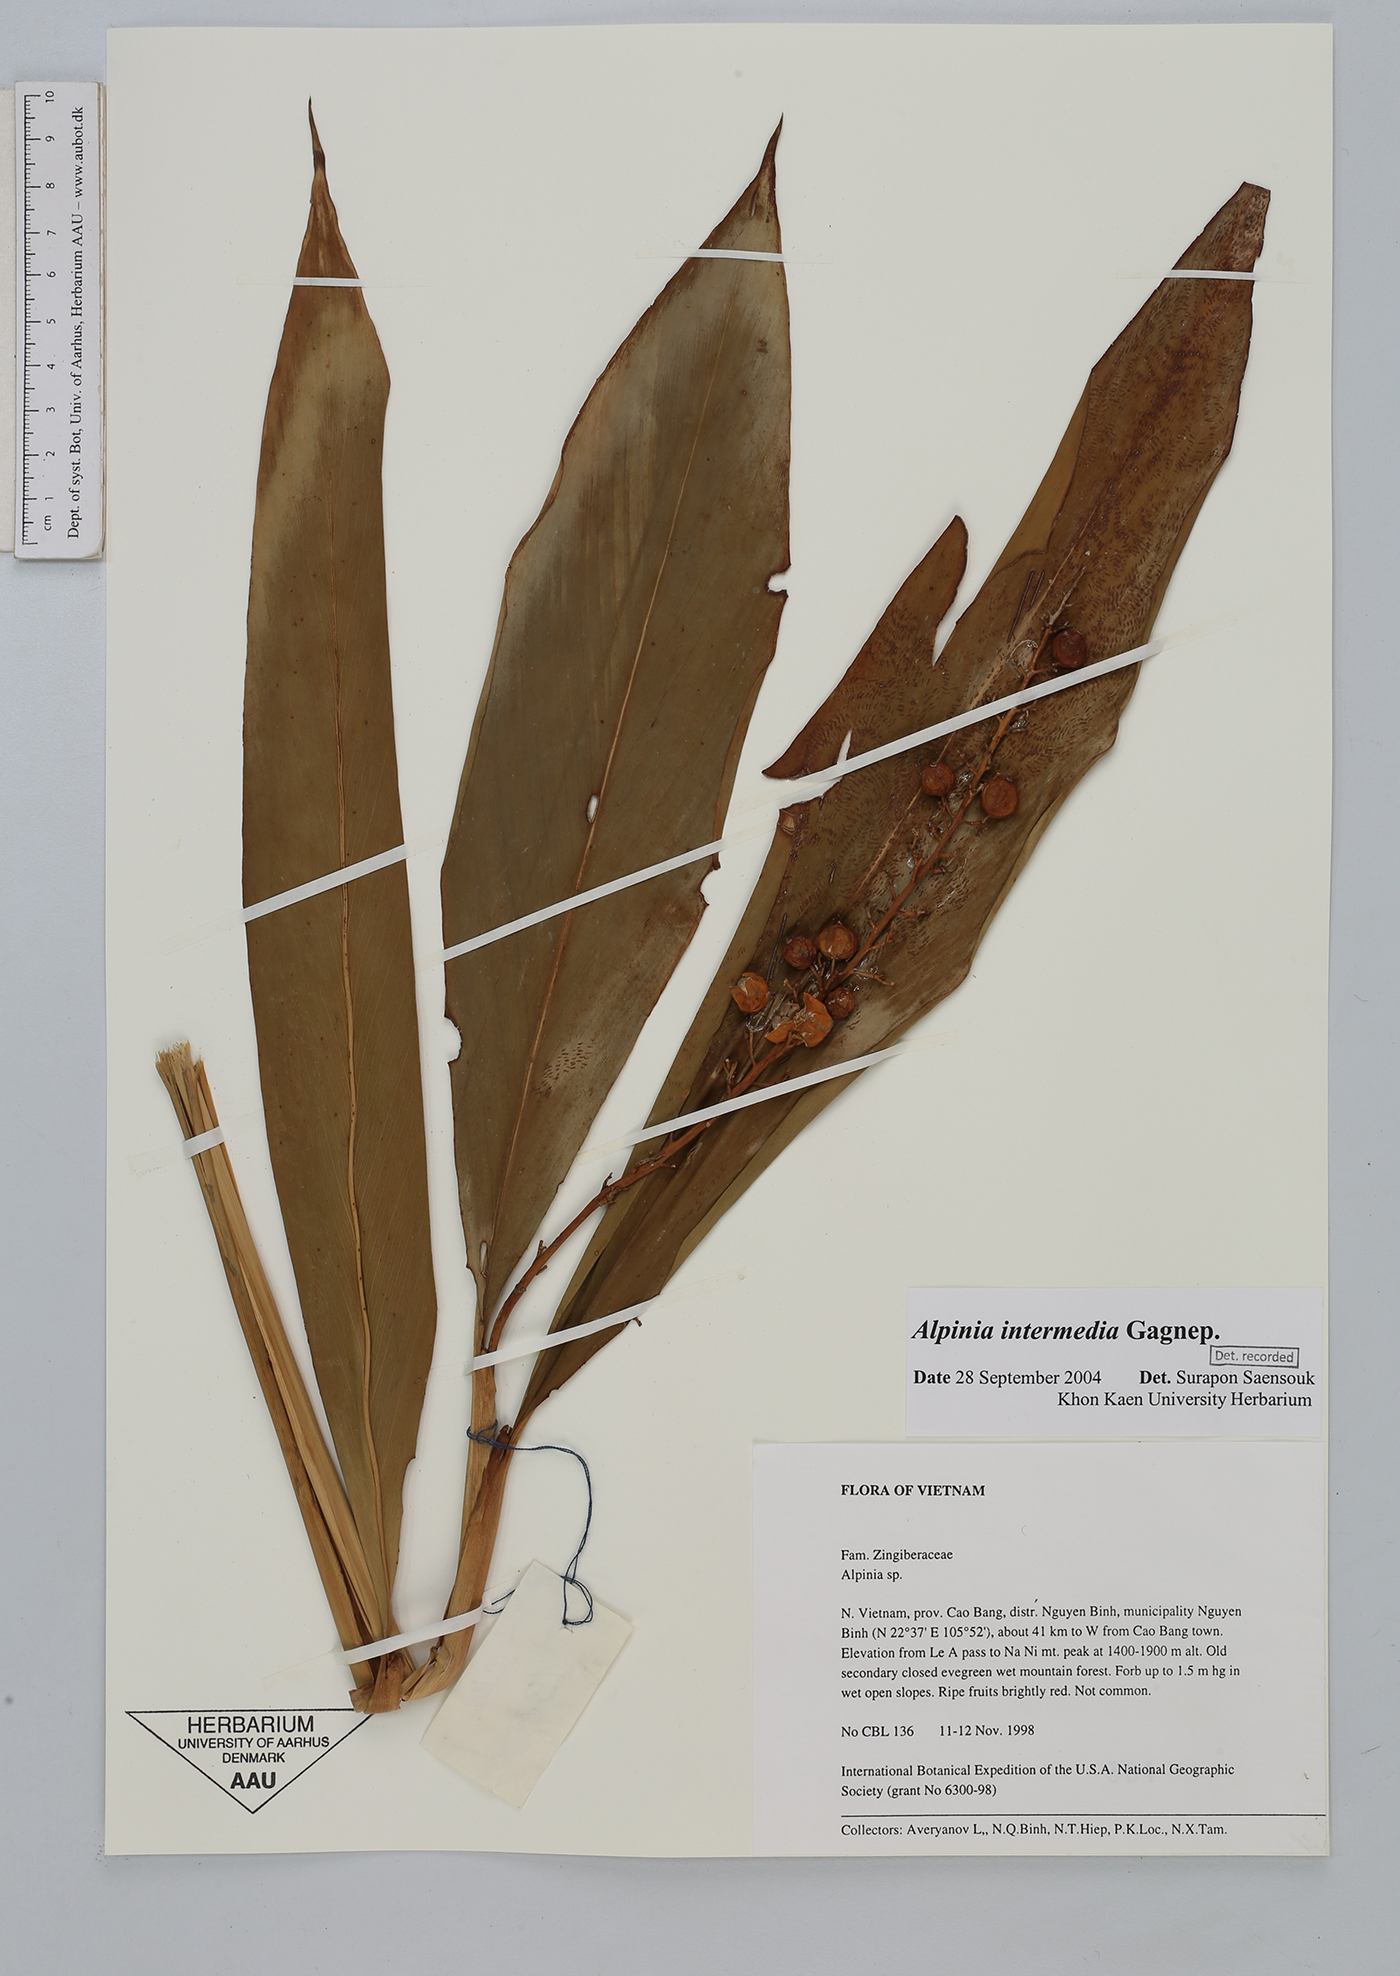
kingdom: Plantae
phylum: Tracheophyta
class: Liliopsida
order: Zingiberales
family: Zingiberaceae
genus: Alpinia
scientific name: Alpinia intermedia
